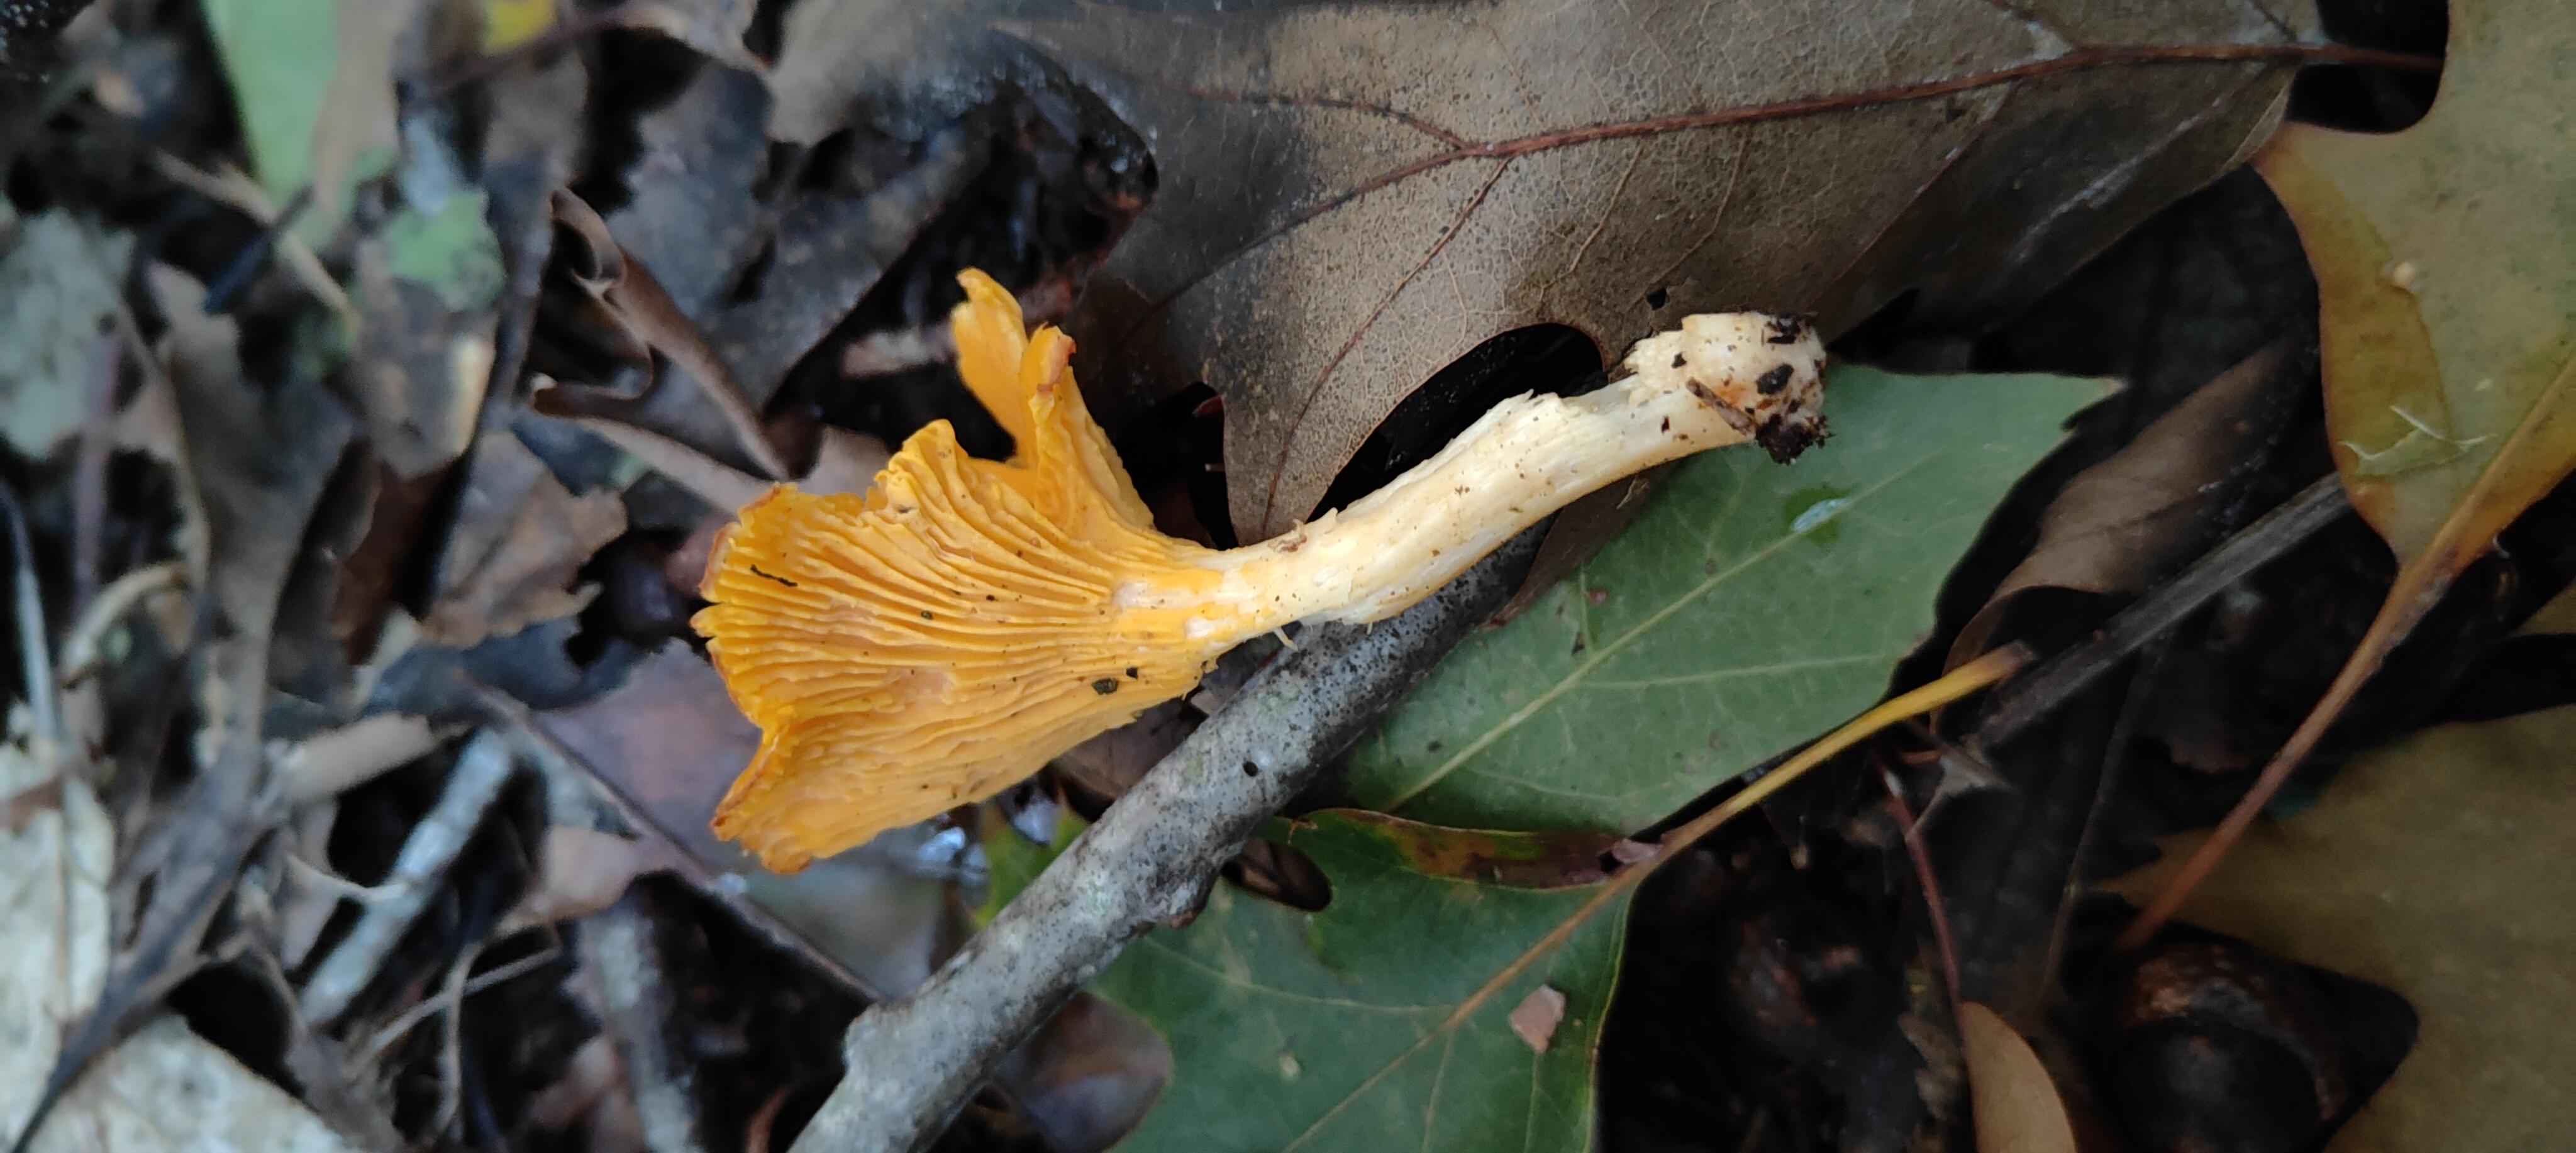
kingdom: Fungi
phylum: Basidiomycota
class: Agaricomycetes
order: Cantharellales
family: Hydnaceae
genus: Cantharellus
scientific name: Cantharellus cibarius
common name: almindelig kantarel
